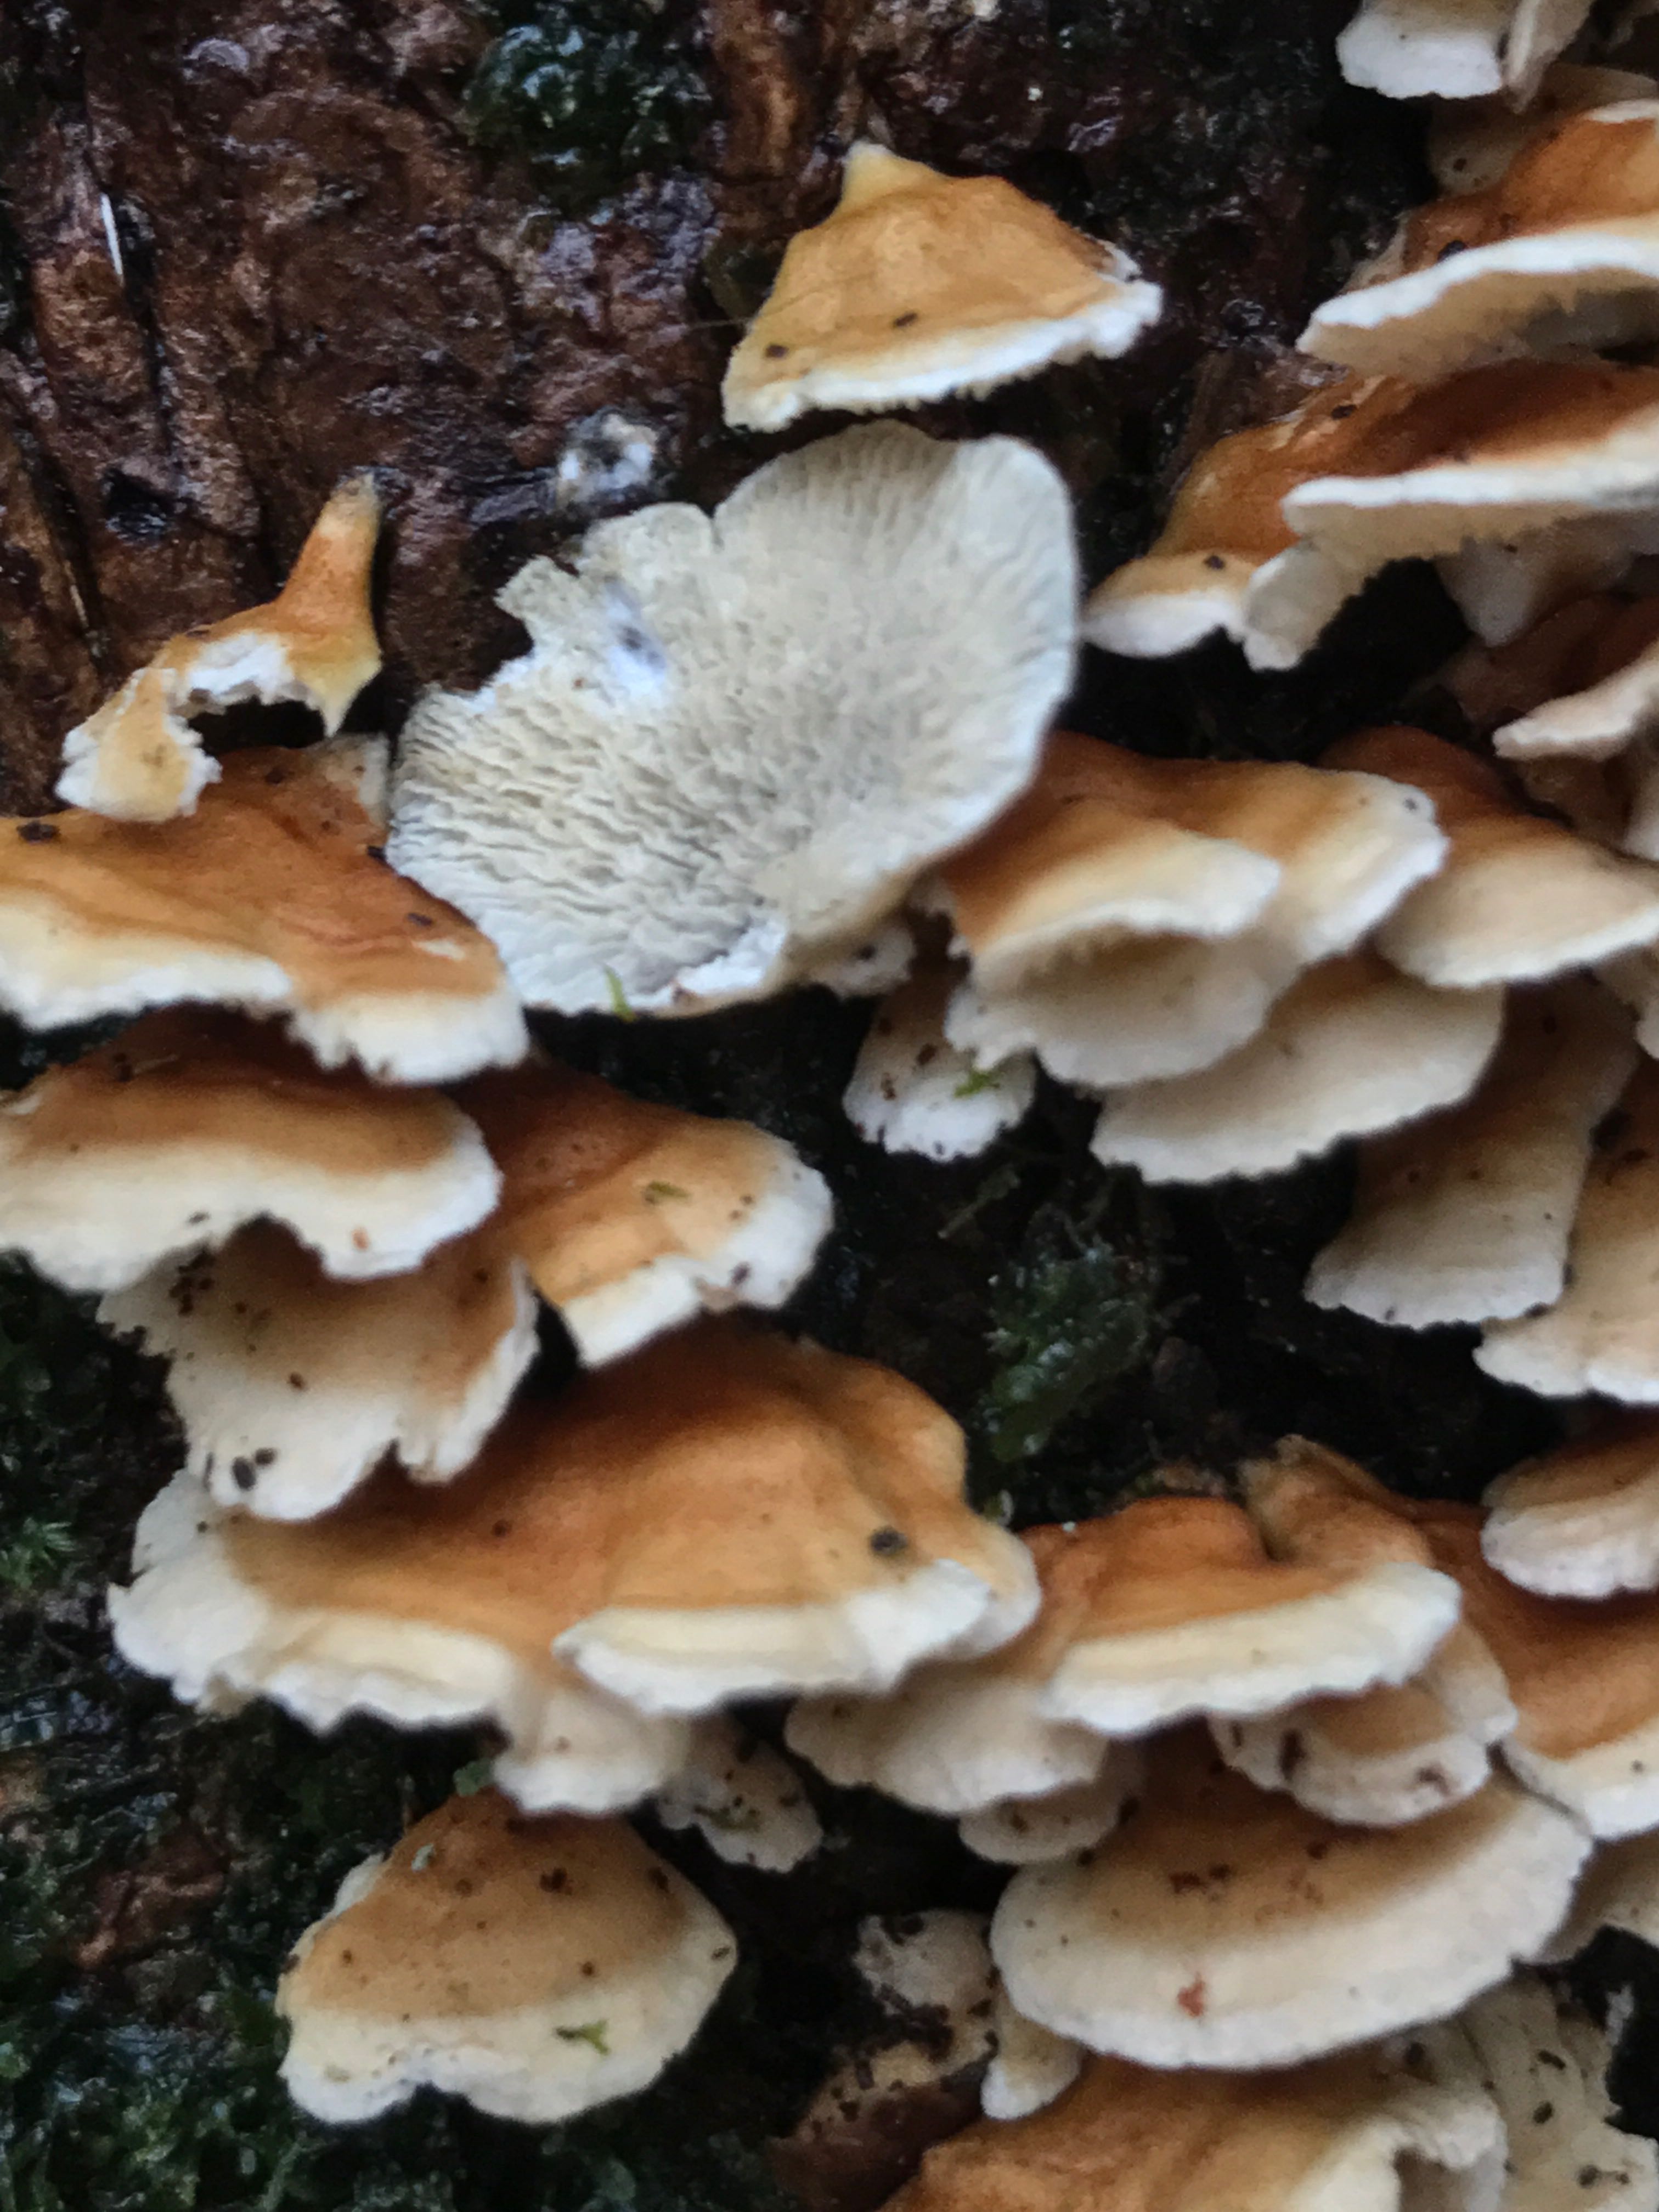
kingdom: Fungi
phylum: Basidiomycota
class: Agaricomycetes
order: Amylocorticiales
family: Amylocorticiaceae
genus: Plicaturopsis
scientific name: Plicaturopsis crispa
